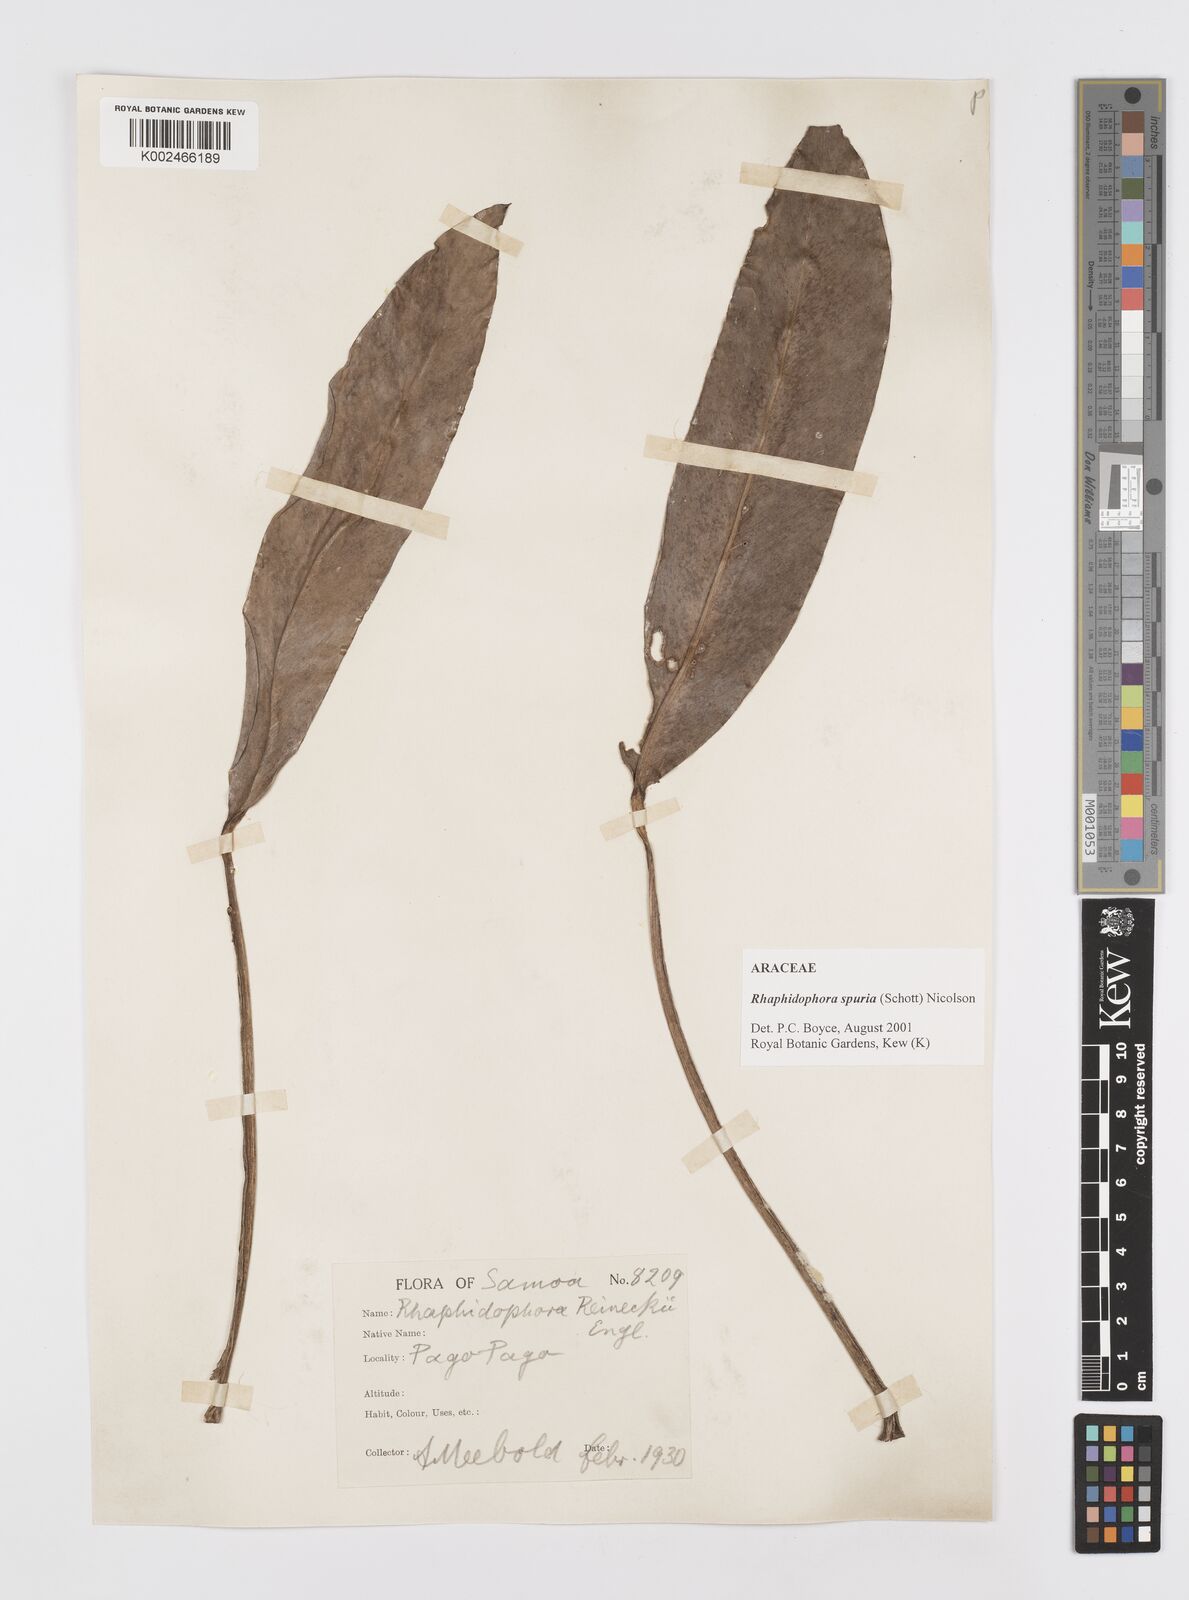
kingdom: Plantae
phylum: Tracheophyta
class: Liliopsida
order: Alismatales
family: Araceae
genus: Rhaphidophora
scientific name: Rhaphidophora spuria
